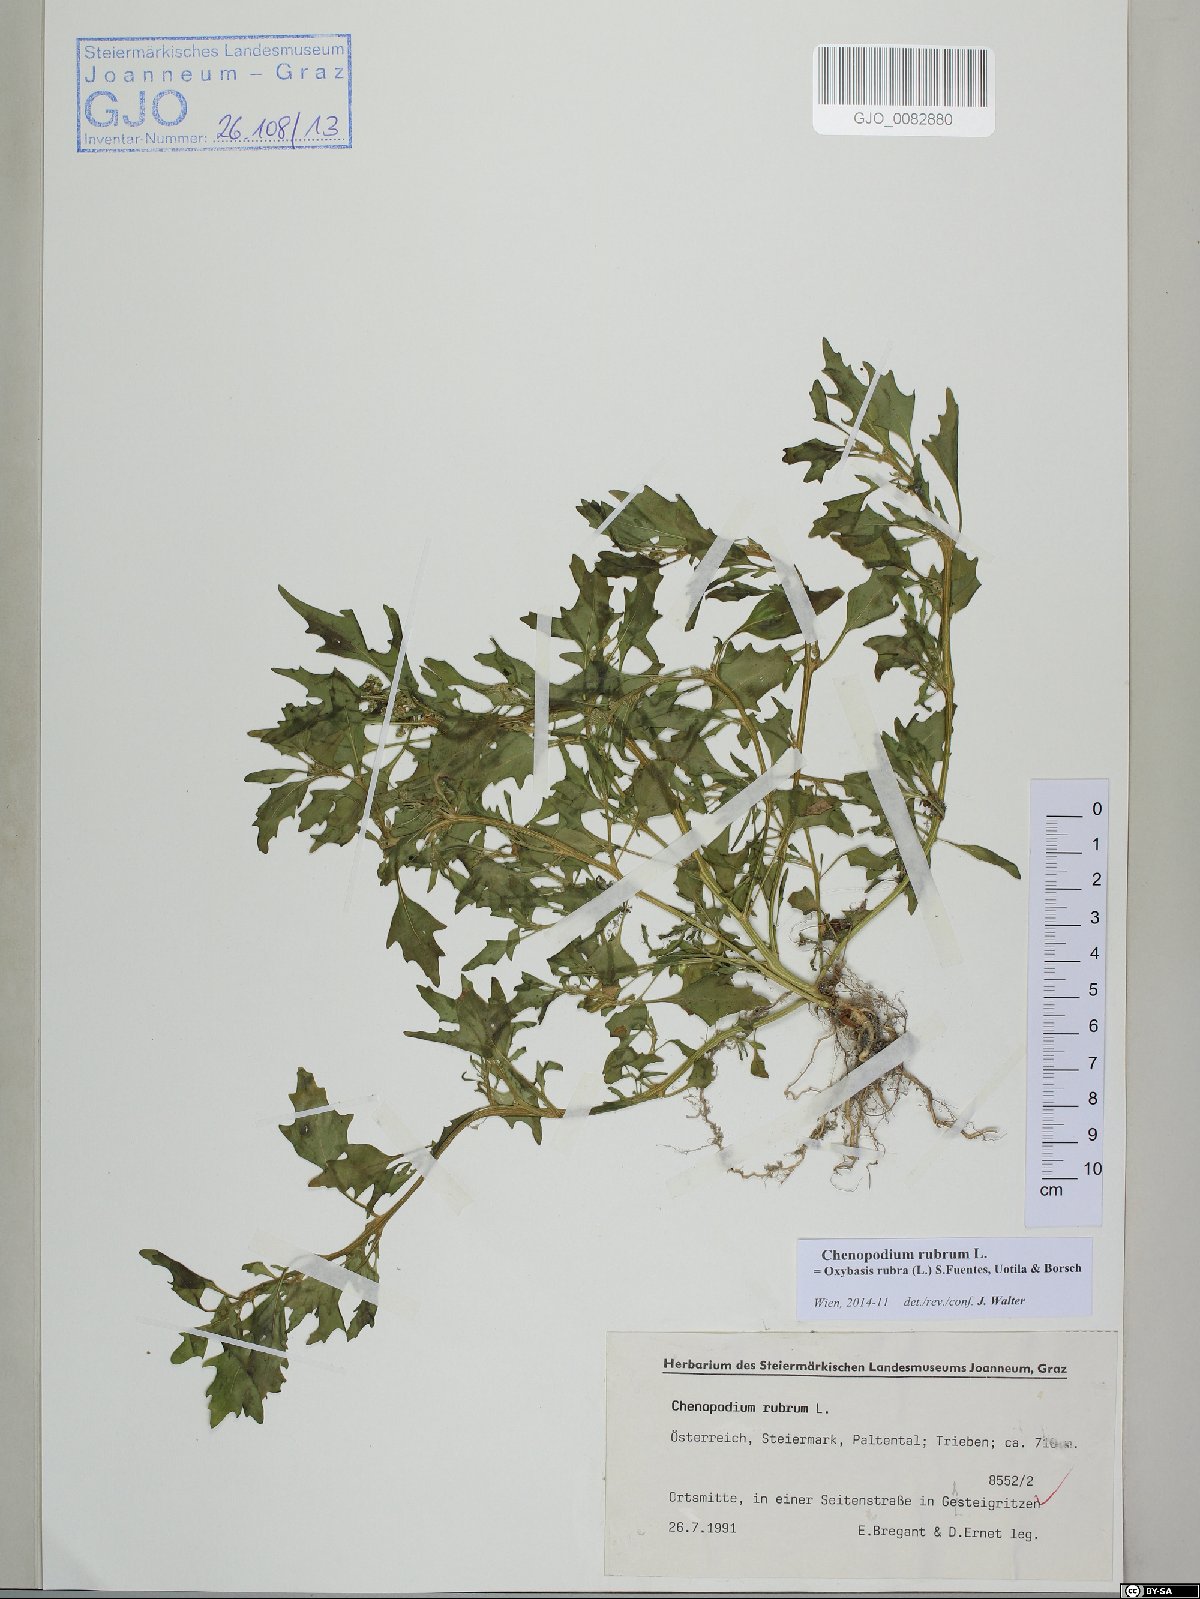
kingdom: Plantae
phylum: Tracheophyta
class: Magnoliopsida
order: Caryophyllales
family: Amaranthaceae
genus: Oxybasis
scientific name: Oxybasis rubra
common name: Red goosefoot
